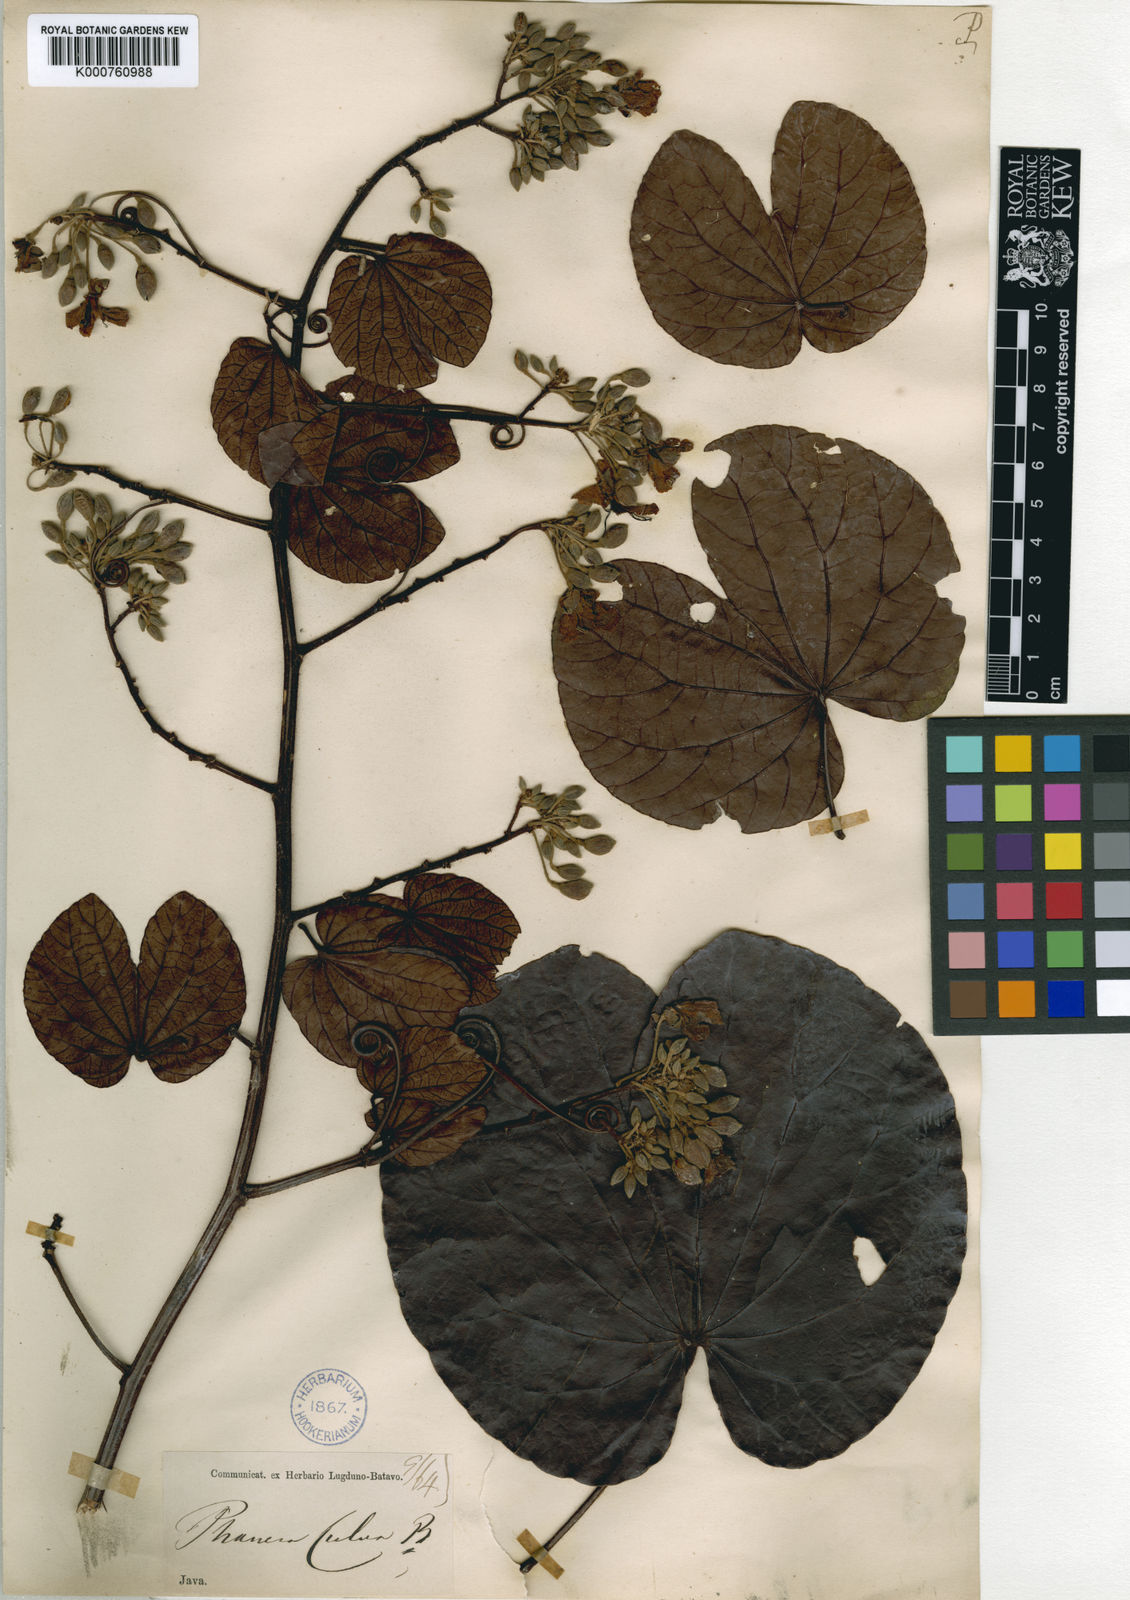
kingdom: Plantae
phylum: Tracheophyta
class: Magnoliopsida
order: Fabales
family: Fabaceae
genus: Phanera
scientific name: Phanera fulva
